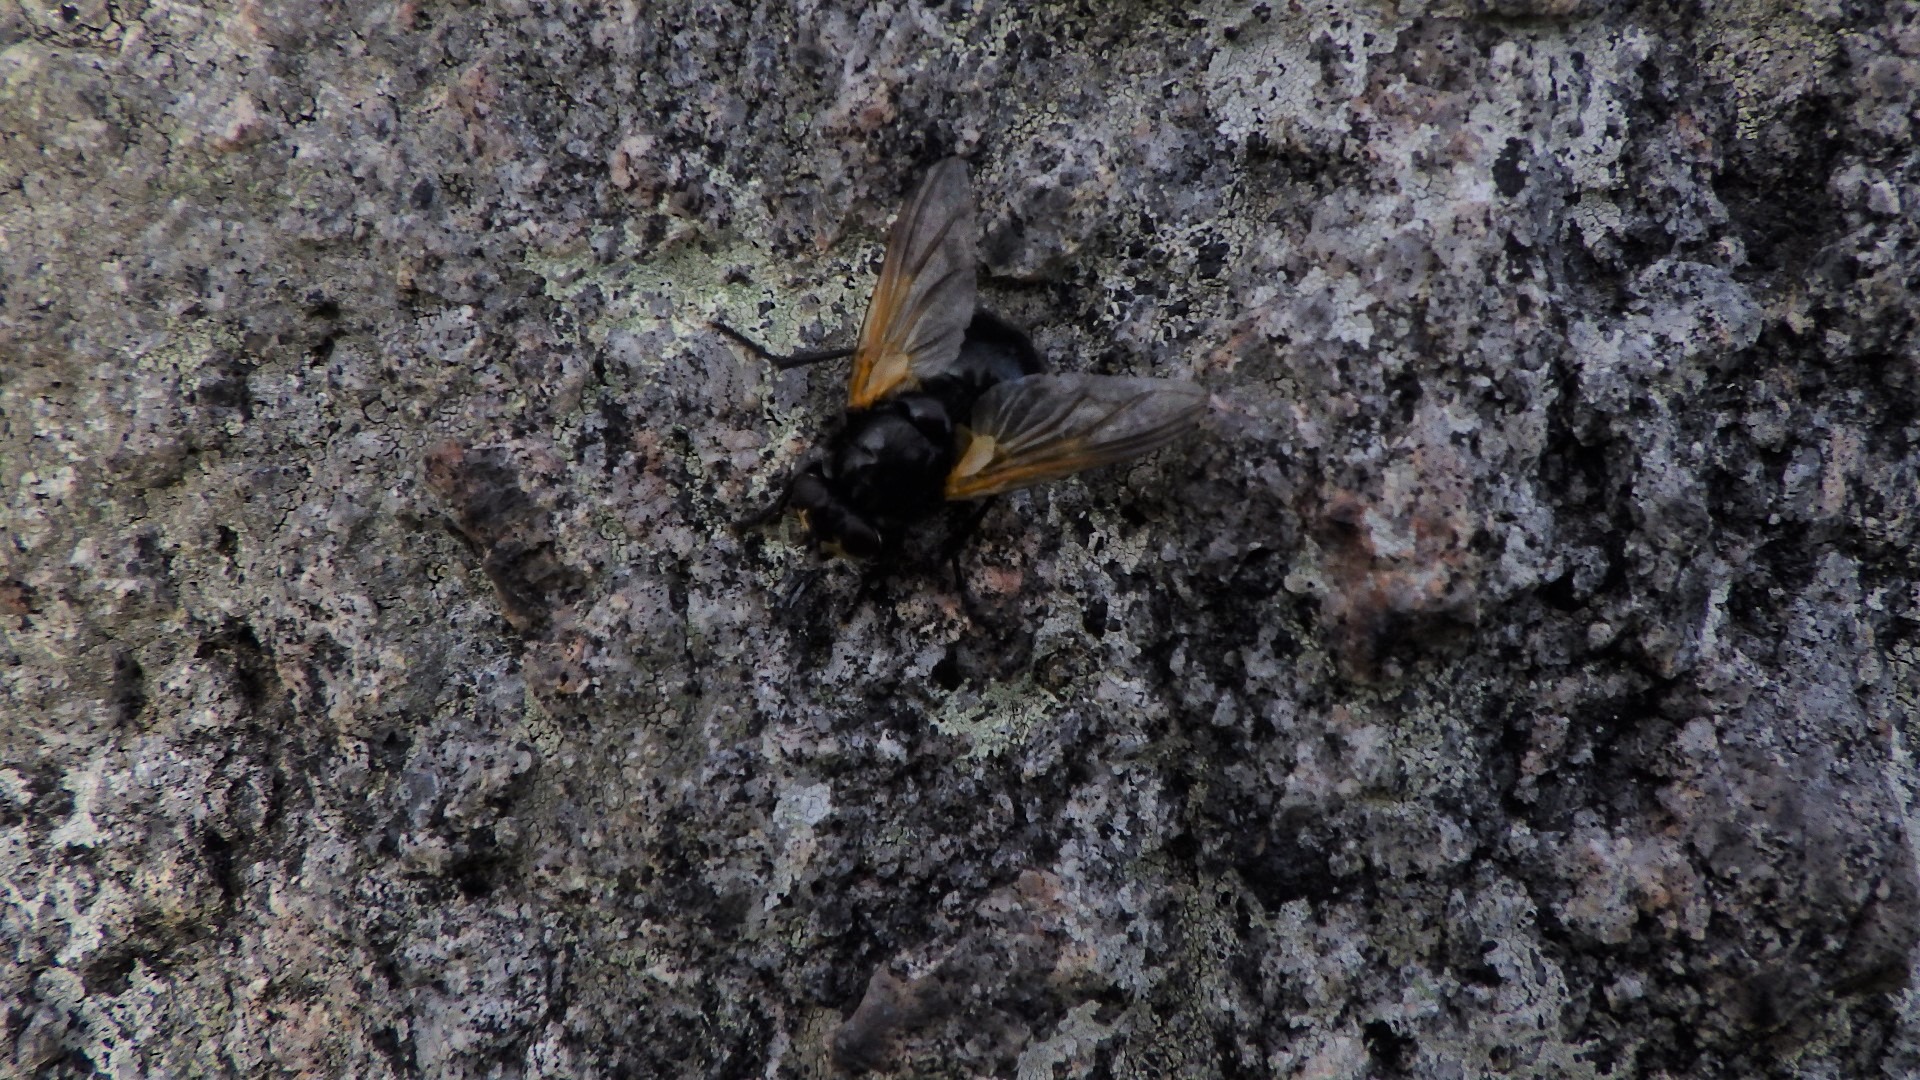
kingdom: Animalia
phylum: Arthropoda
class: Insecta
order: Diptera
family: Muscidae
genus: Mesembrina
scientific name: Mesembrina meridiana
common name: Gulvinget flue
